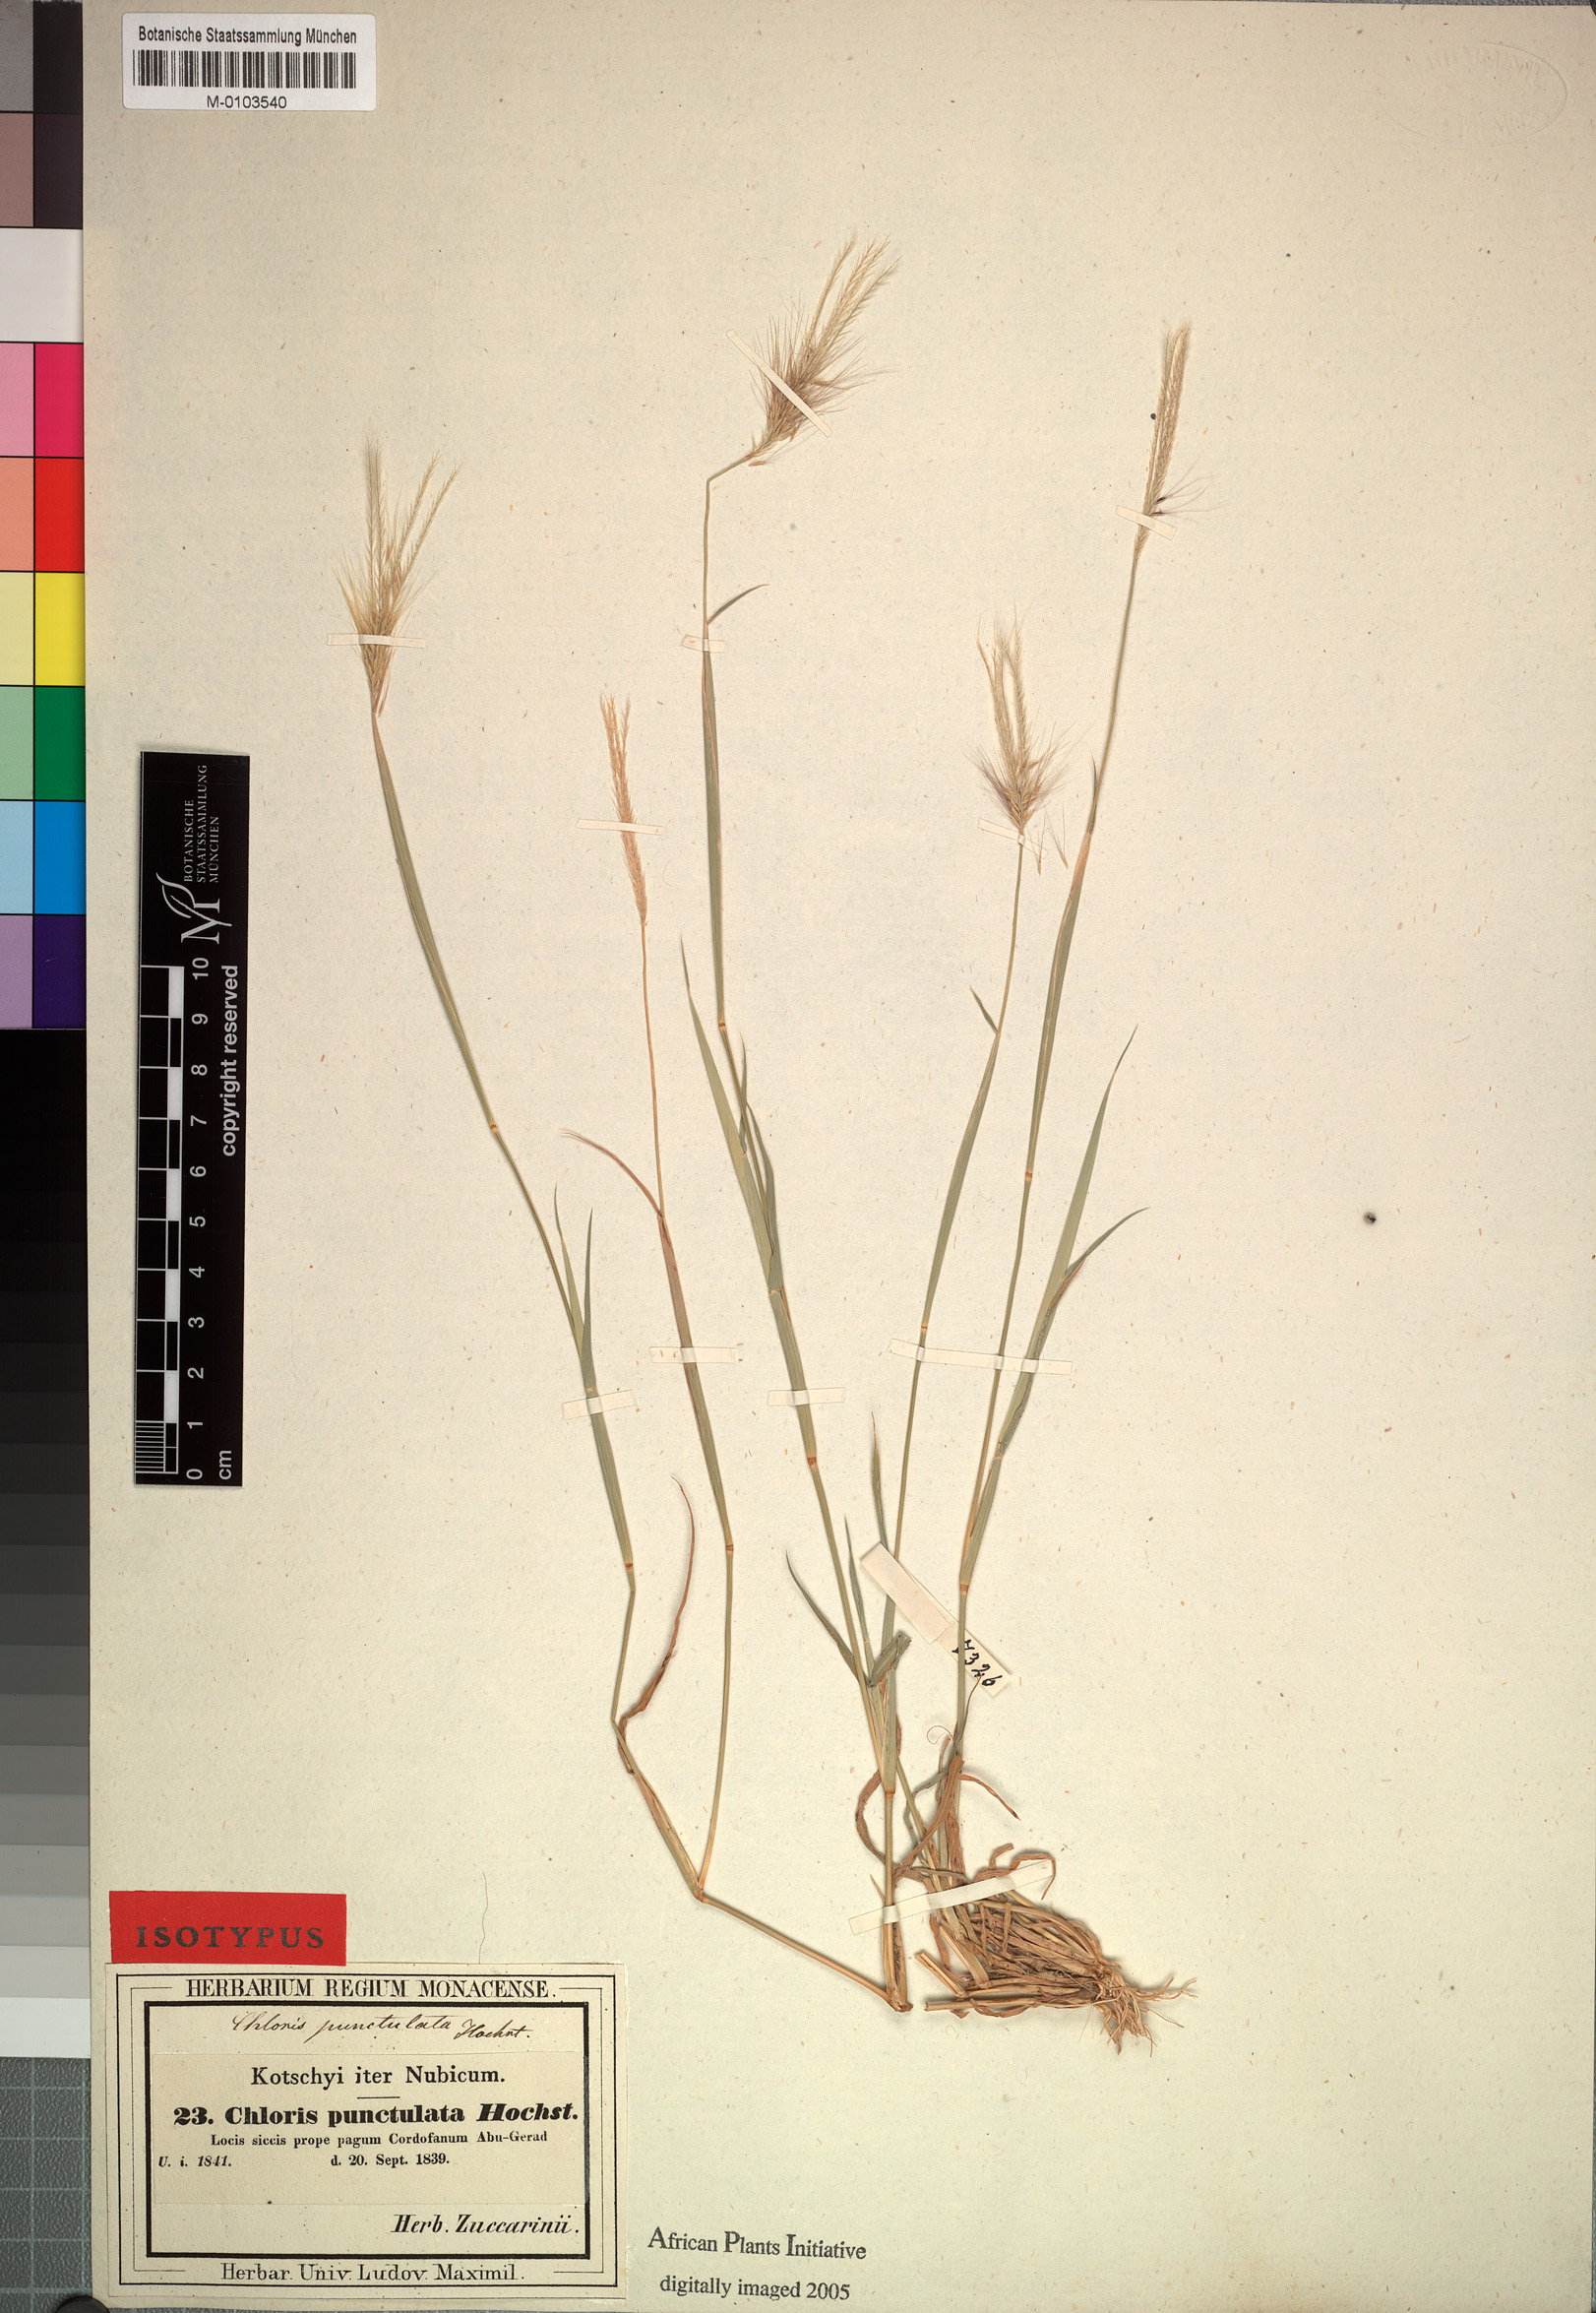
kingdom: Plantae
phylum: Tracheophyta
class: Liliopsida
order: Poales
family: Poaceae
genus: Enteropogon
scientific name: Enteropogon prieurii
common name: Prieur's umbrellagrass
